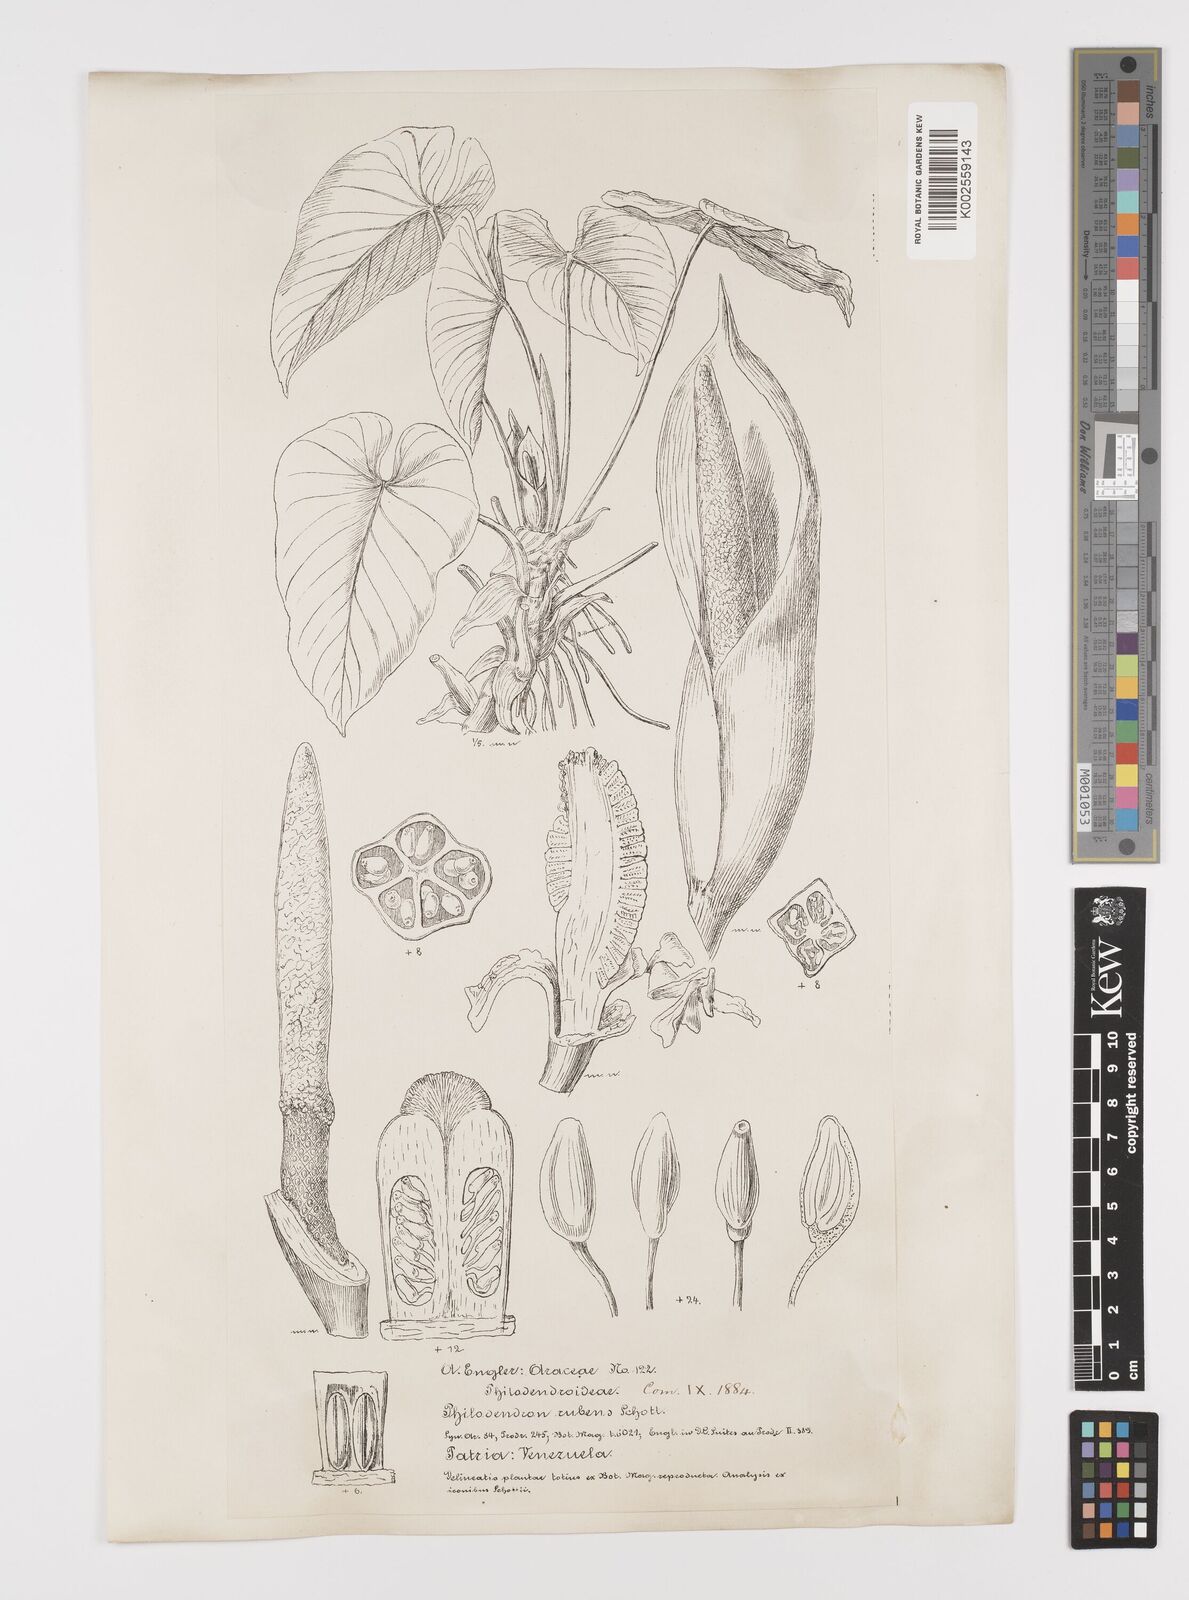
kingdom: Plantae
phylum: Tracheophyta
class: Liliopsida
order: Alismatales
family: Araceae
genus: Philodendron
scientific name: Philodendron ornatum
